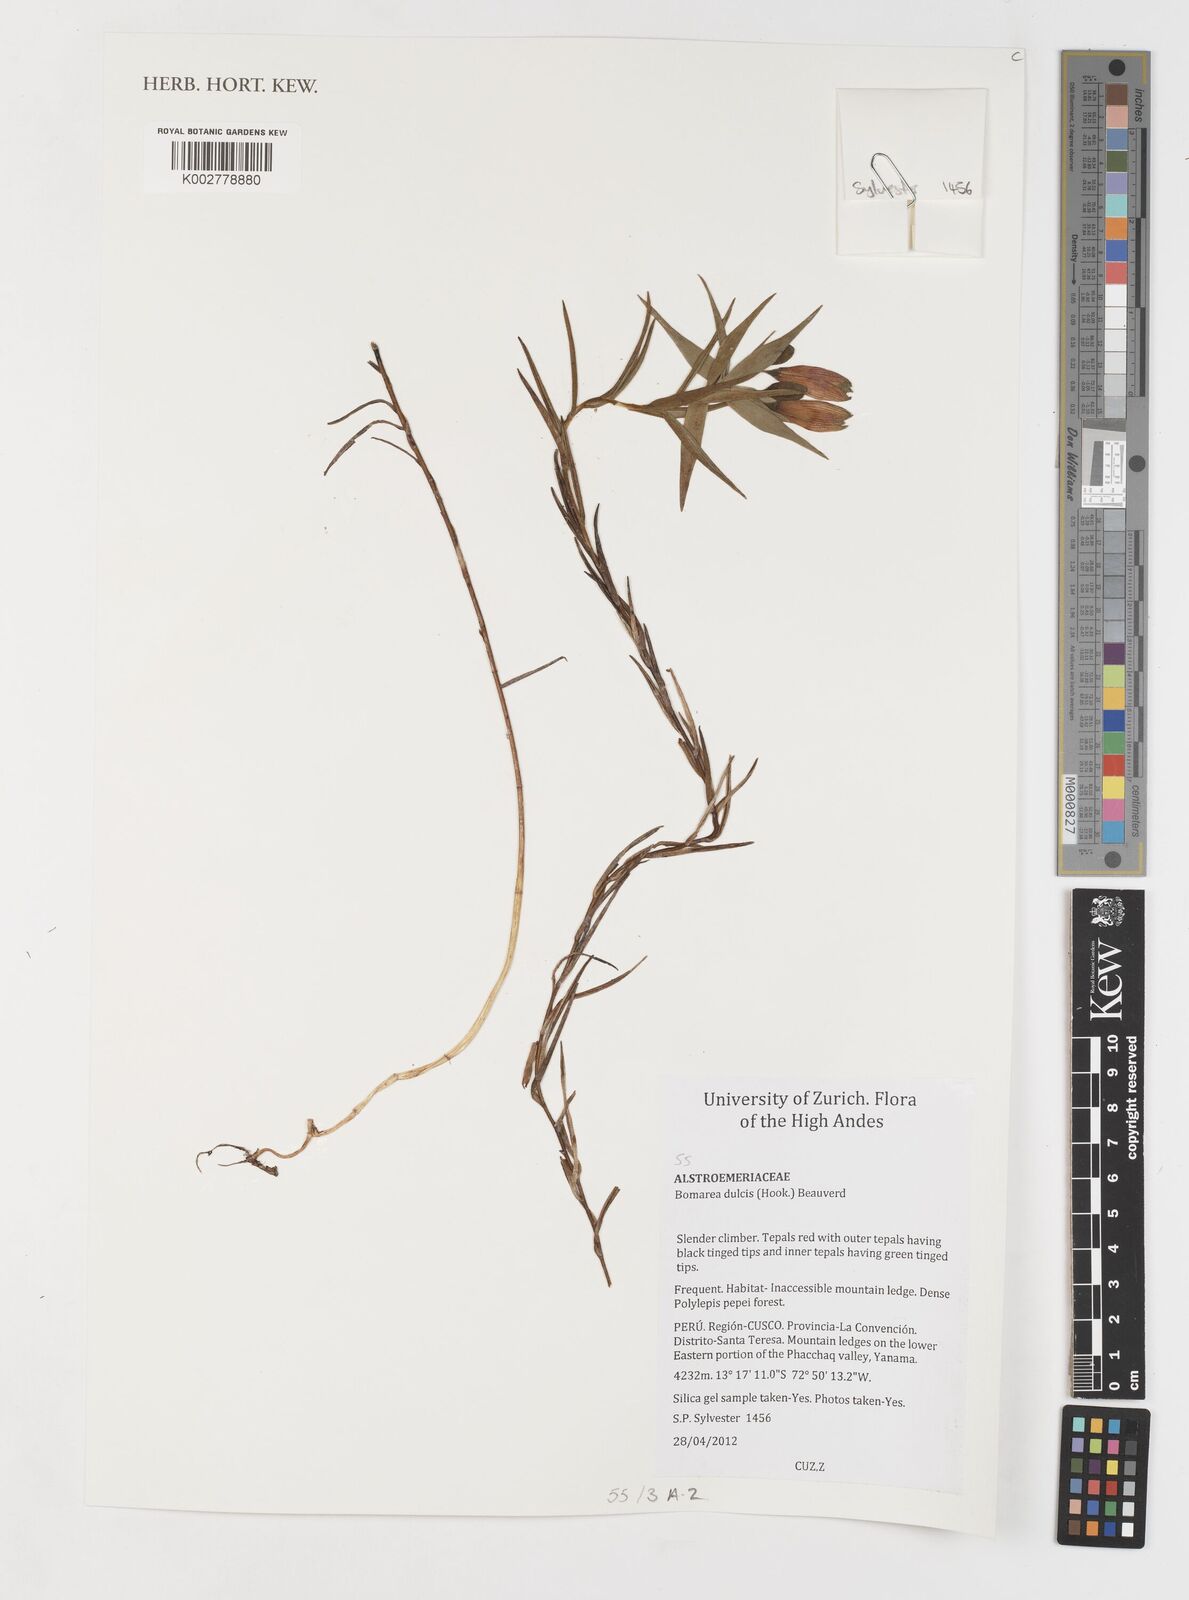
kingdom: Plantae
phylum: Tracheophyta
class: Liliopsida
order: Liliales
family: Alstroemeriaceae
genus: Bomarea
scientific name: Bomarea dulcis
